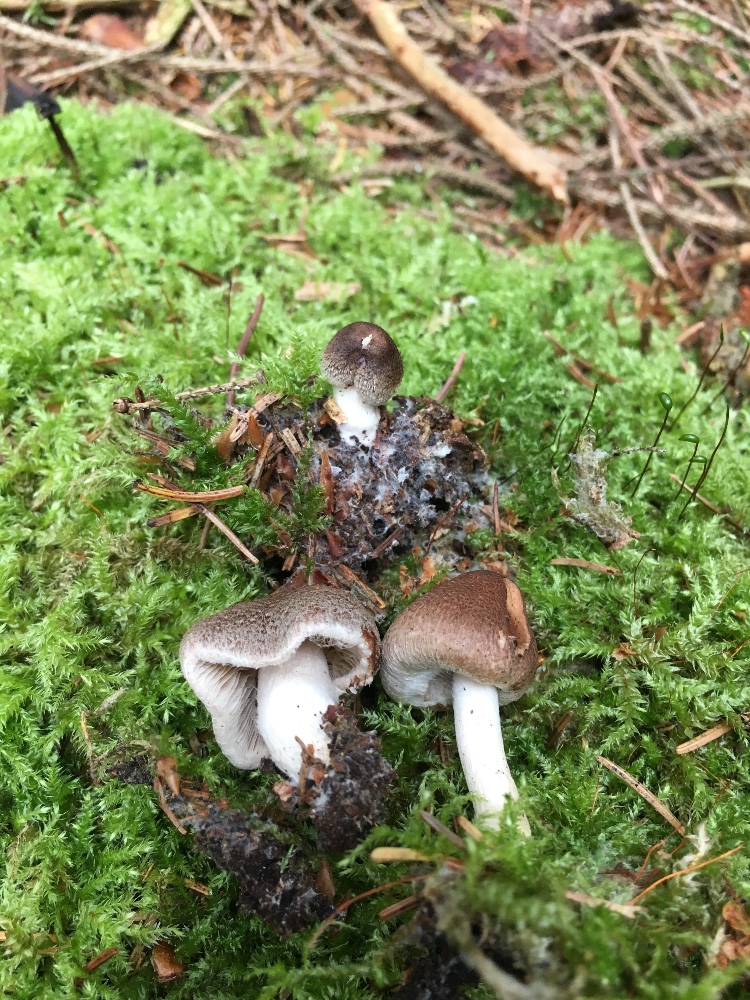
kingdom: Fungi
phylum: Basidiomycota
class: Agaricomycetes
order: Agaricales
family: Inocybaceae
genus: Inocybe
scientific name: Inocybe
